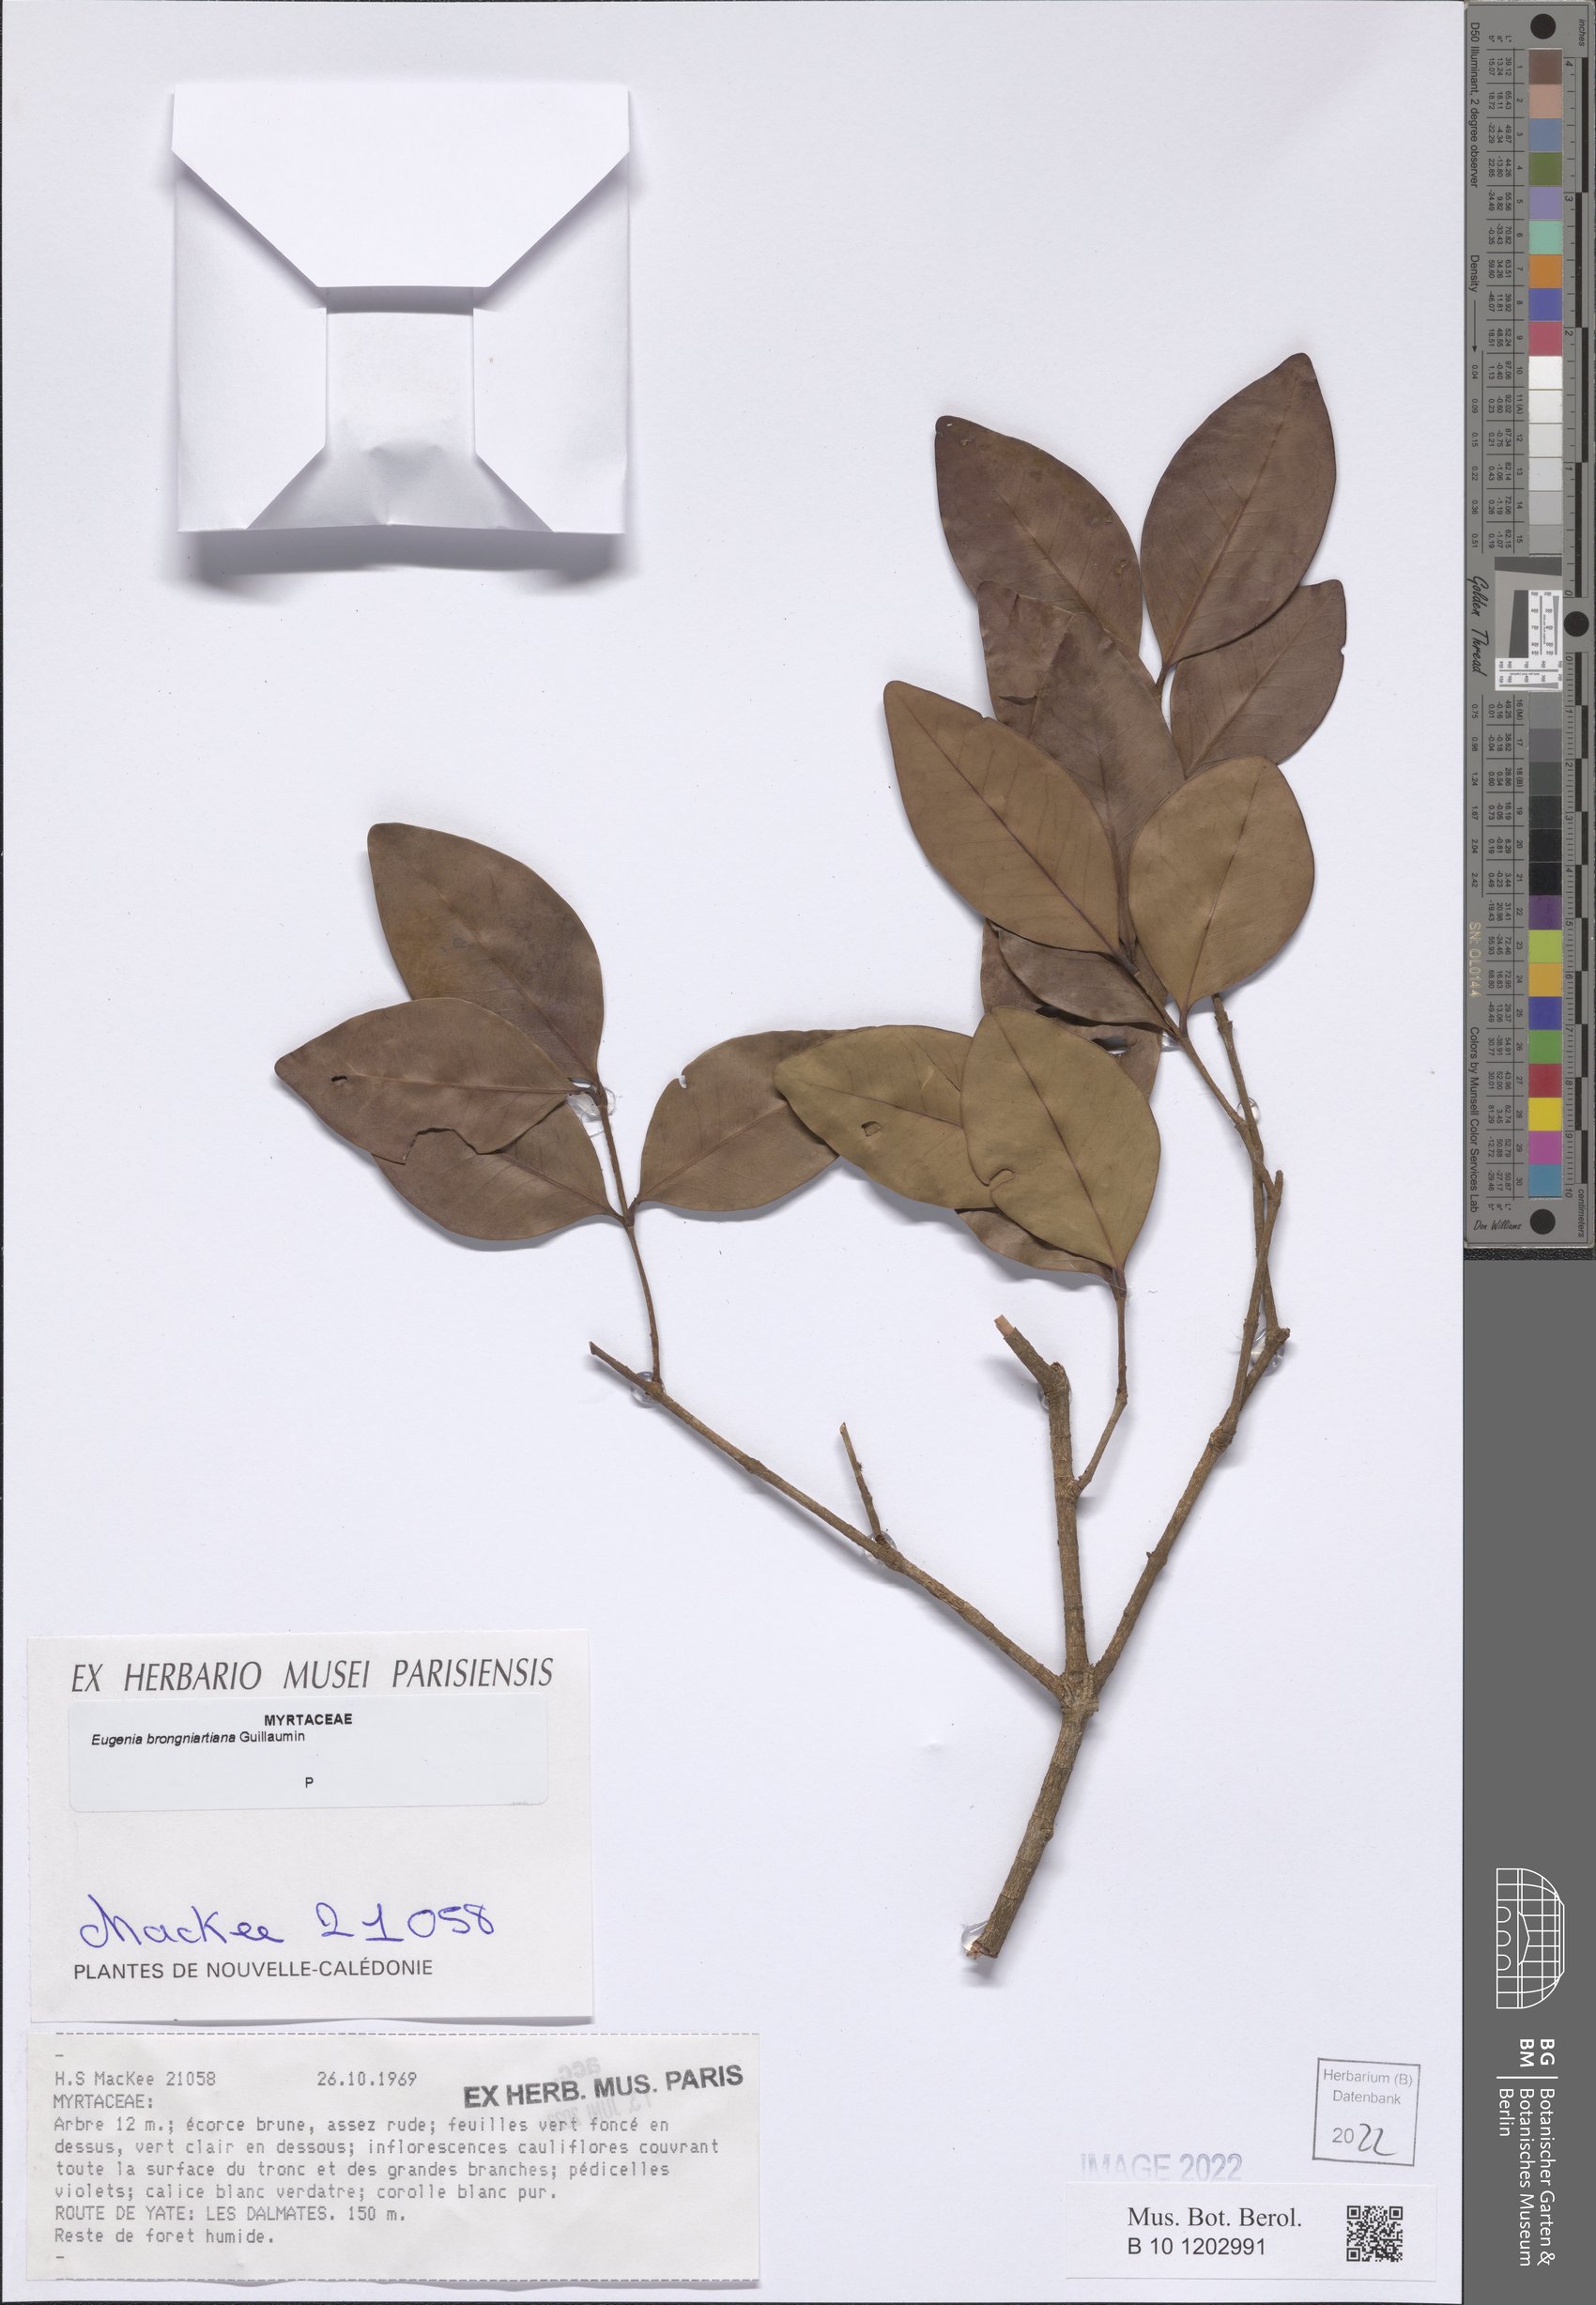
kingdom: Plantae
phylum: Tracheophyta
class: Magnoliopsida
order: Myrtales
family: Myrtaceae
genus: Eugenia
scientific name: Eugenia brongniartiana
